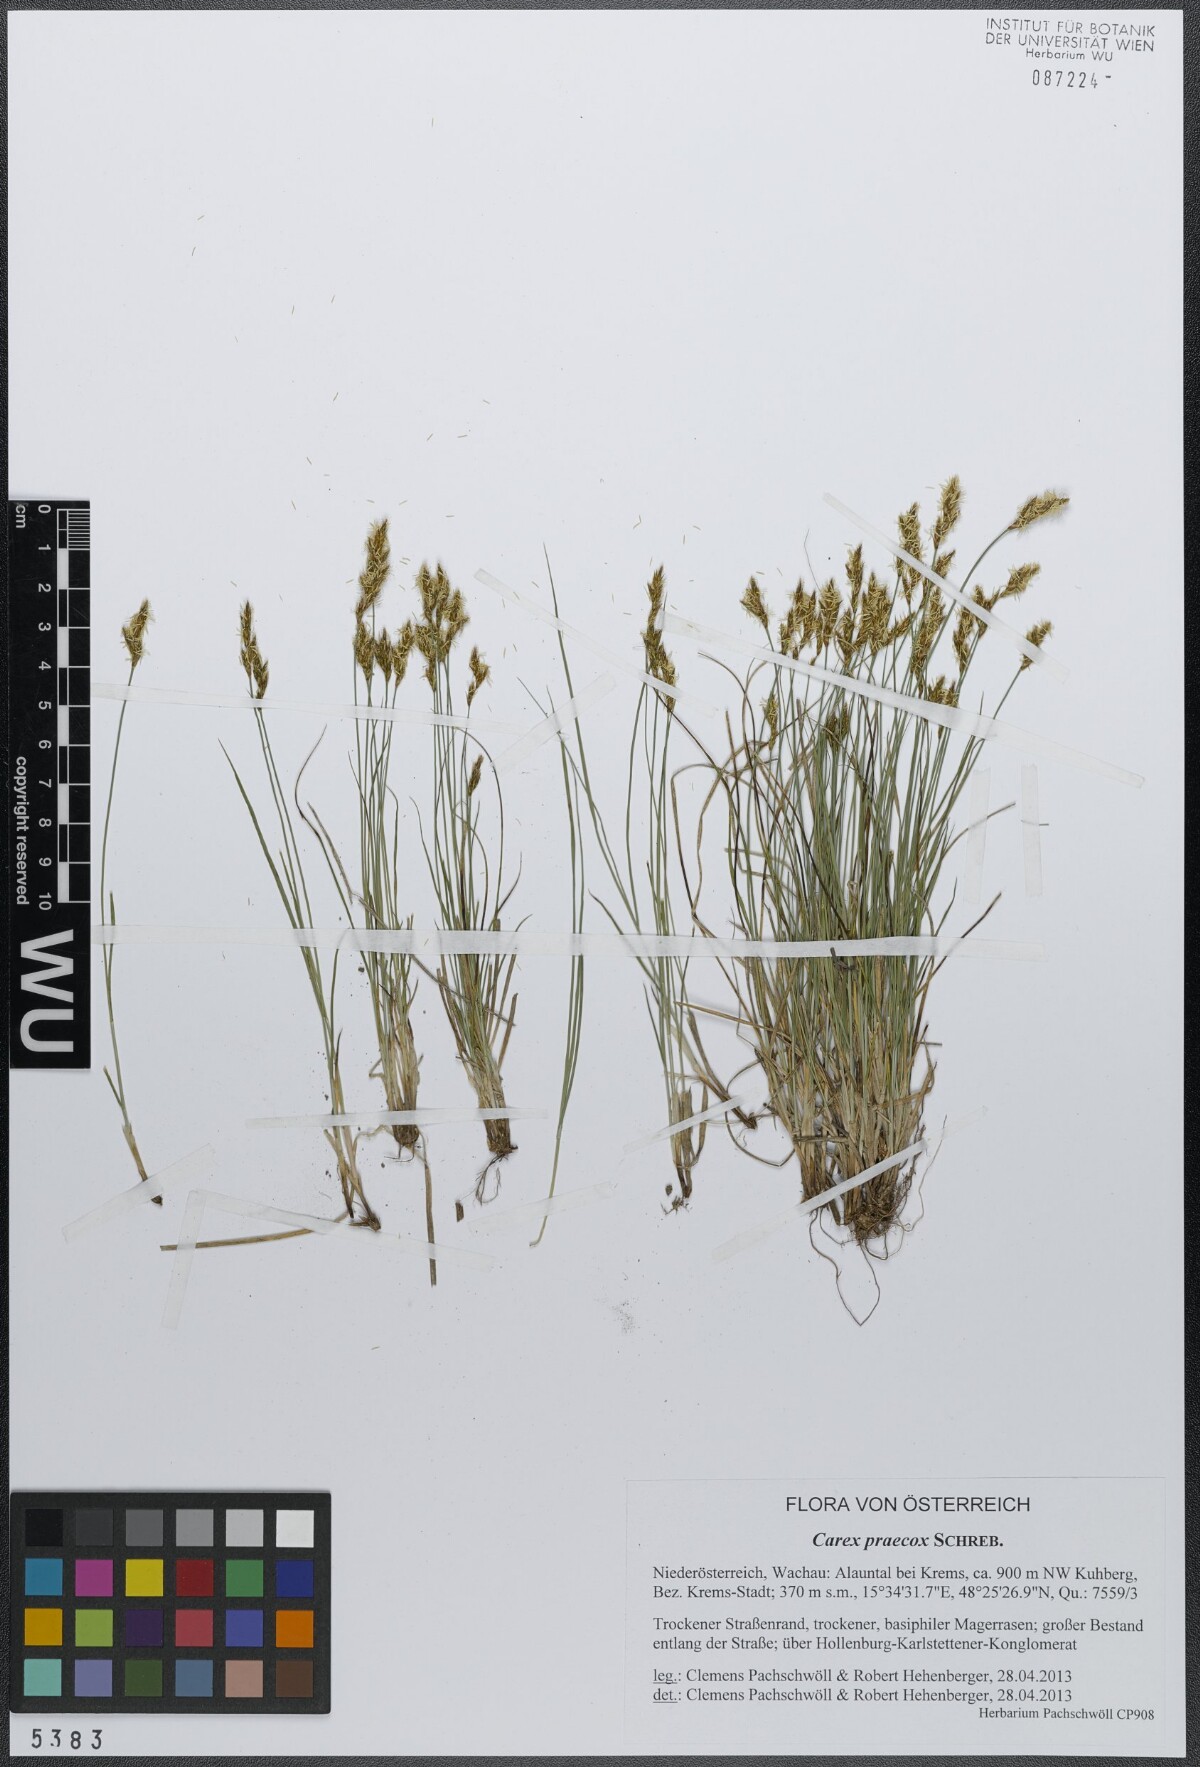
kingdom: Plantae
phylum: Tracheophyta
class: Liliopsida
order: Poales
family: Cyperaceae
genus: Carex
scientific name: Carex praecox
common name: Early sedge
